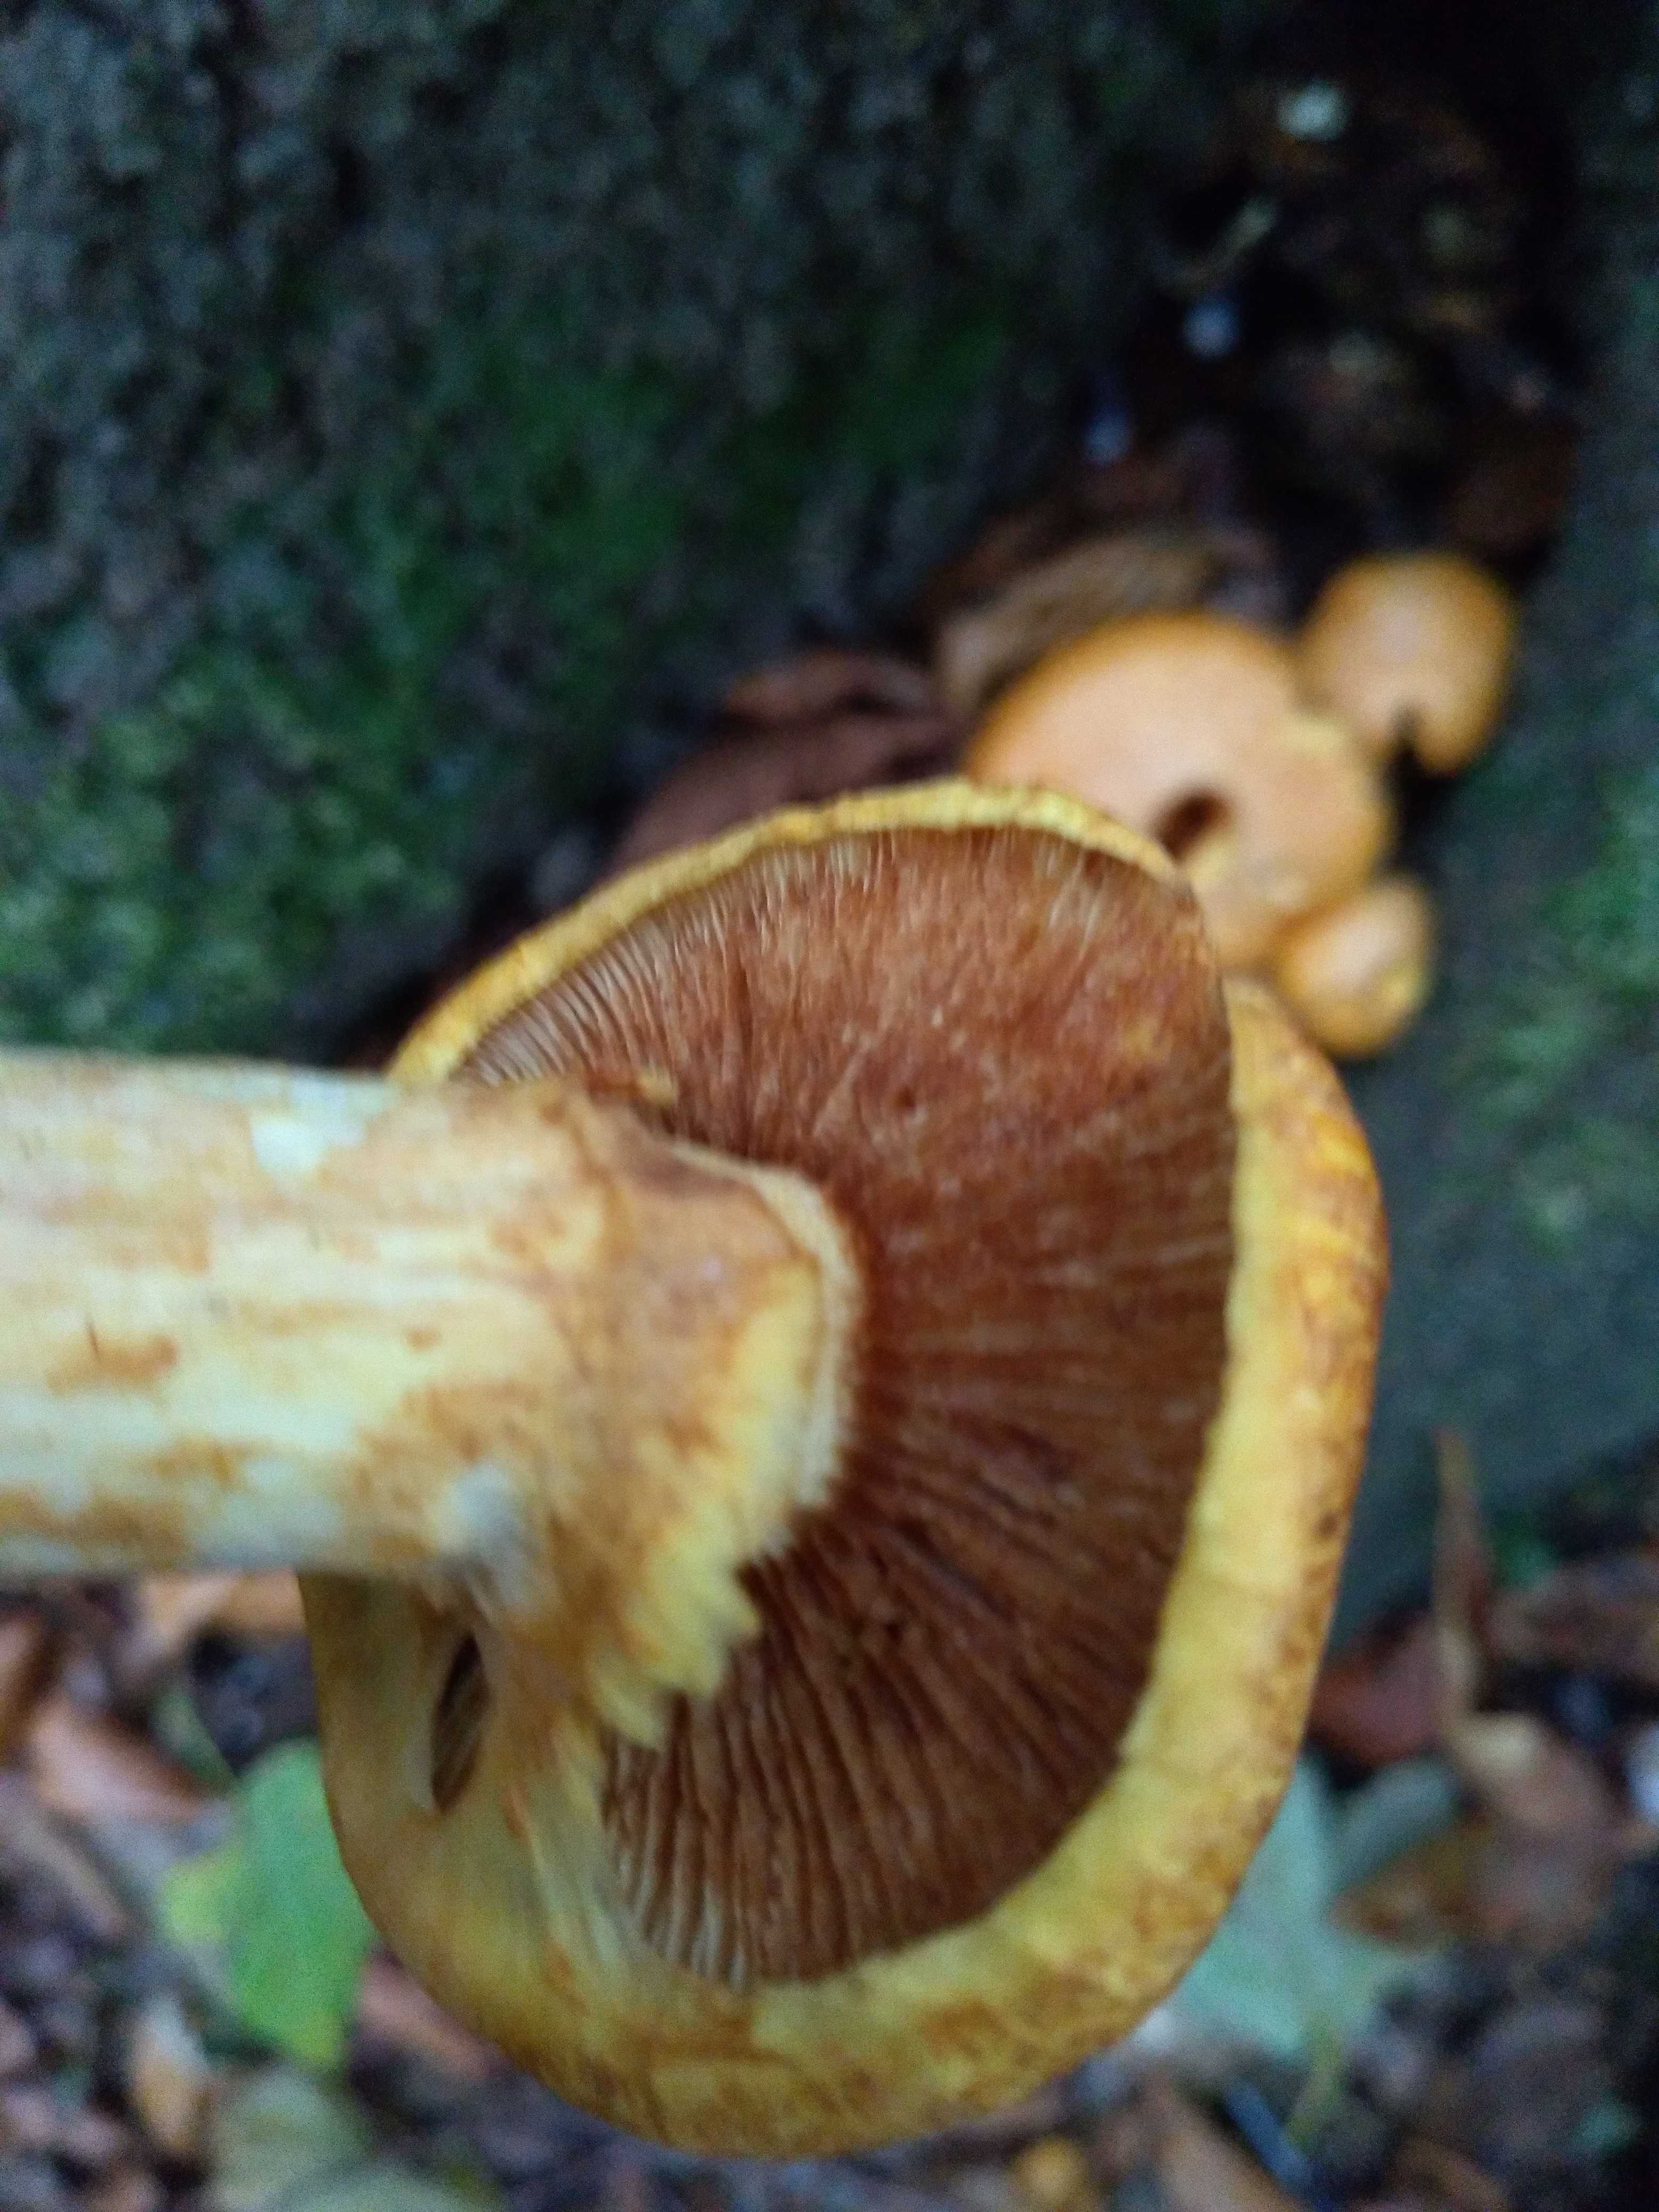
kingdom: Fungi
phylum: Basidiomycota
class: Agaricomycetes
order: Agaricales
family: Hymenogastraceae
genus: Gymnopilus
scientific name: Gymnopilus spectabilis
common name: fibret flammehat
